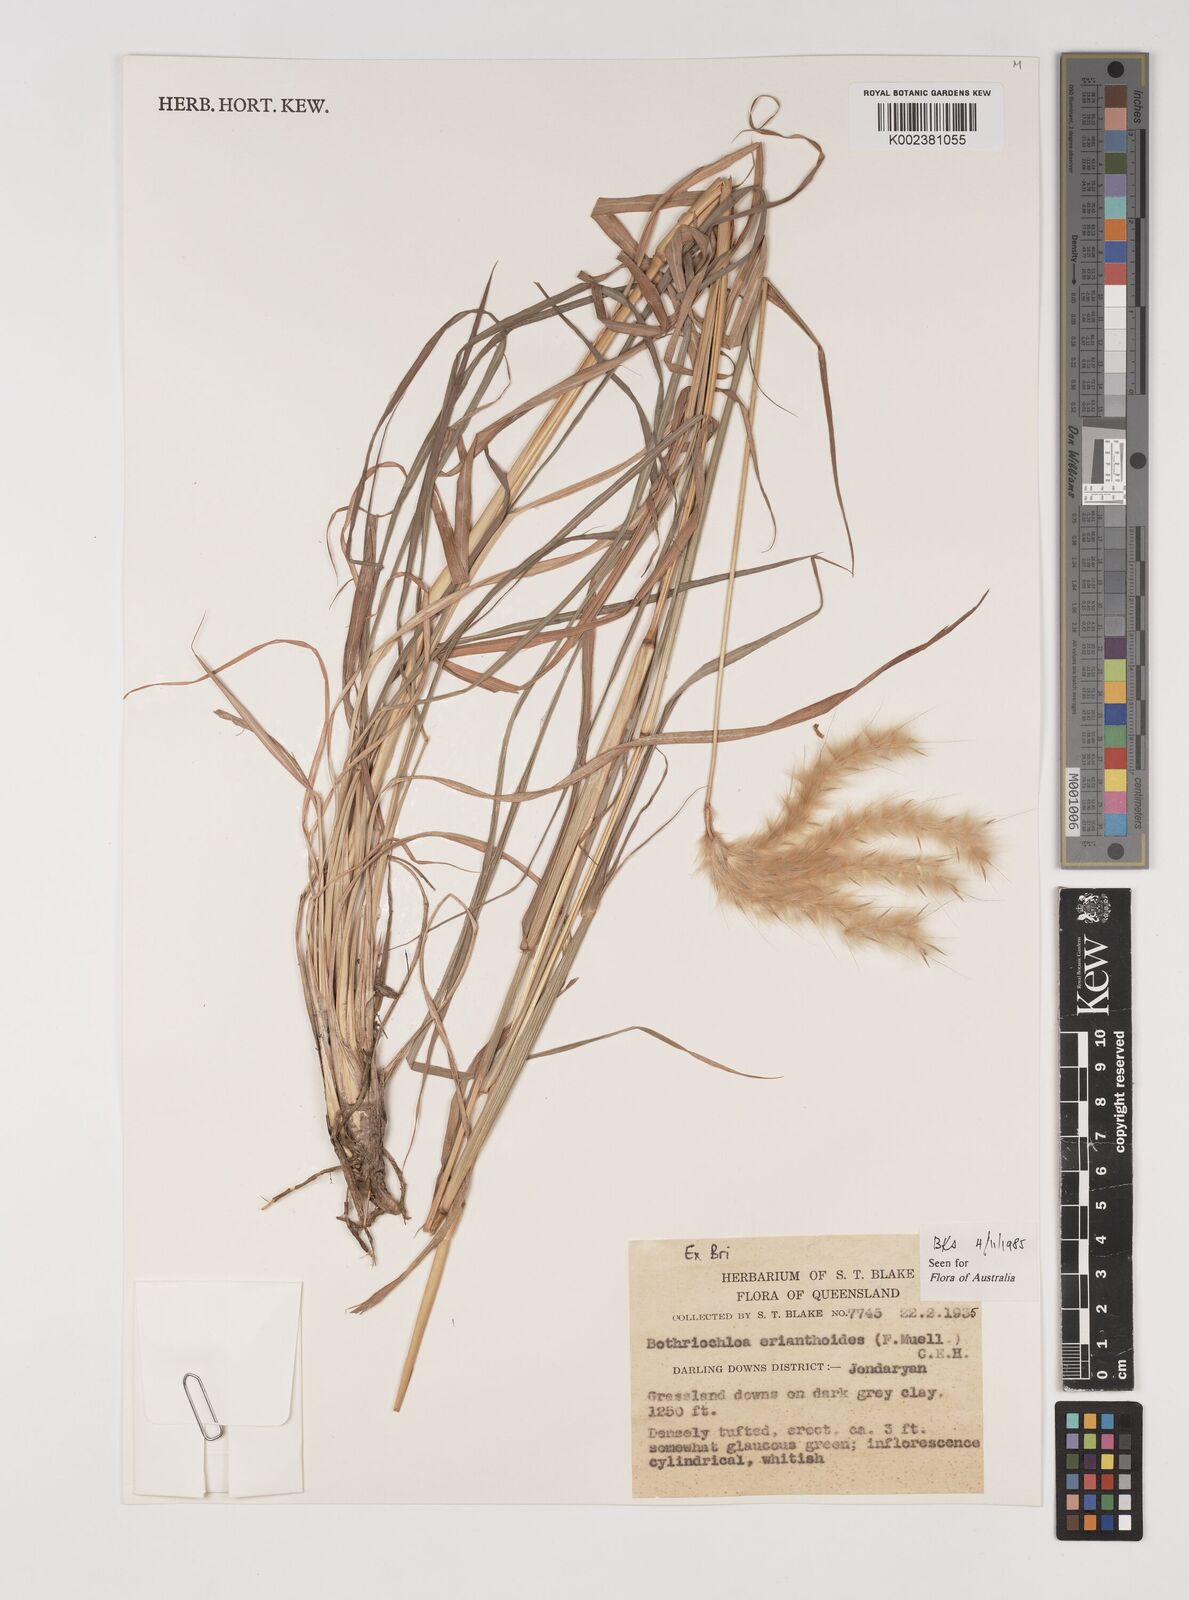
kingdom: Plantae
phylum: Tracheophyta
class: Liliopsida
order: Poales
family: Poaceae
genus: Bothriochloa
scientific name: Bothriochloa erianthoides
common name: Satin-top grass
